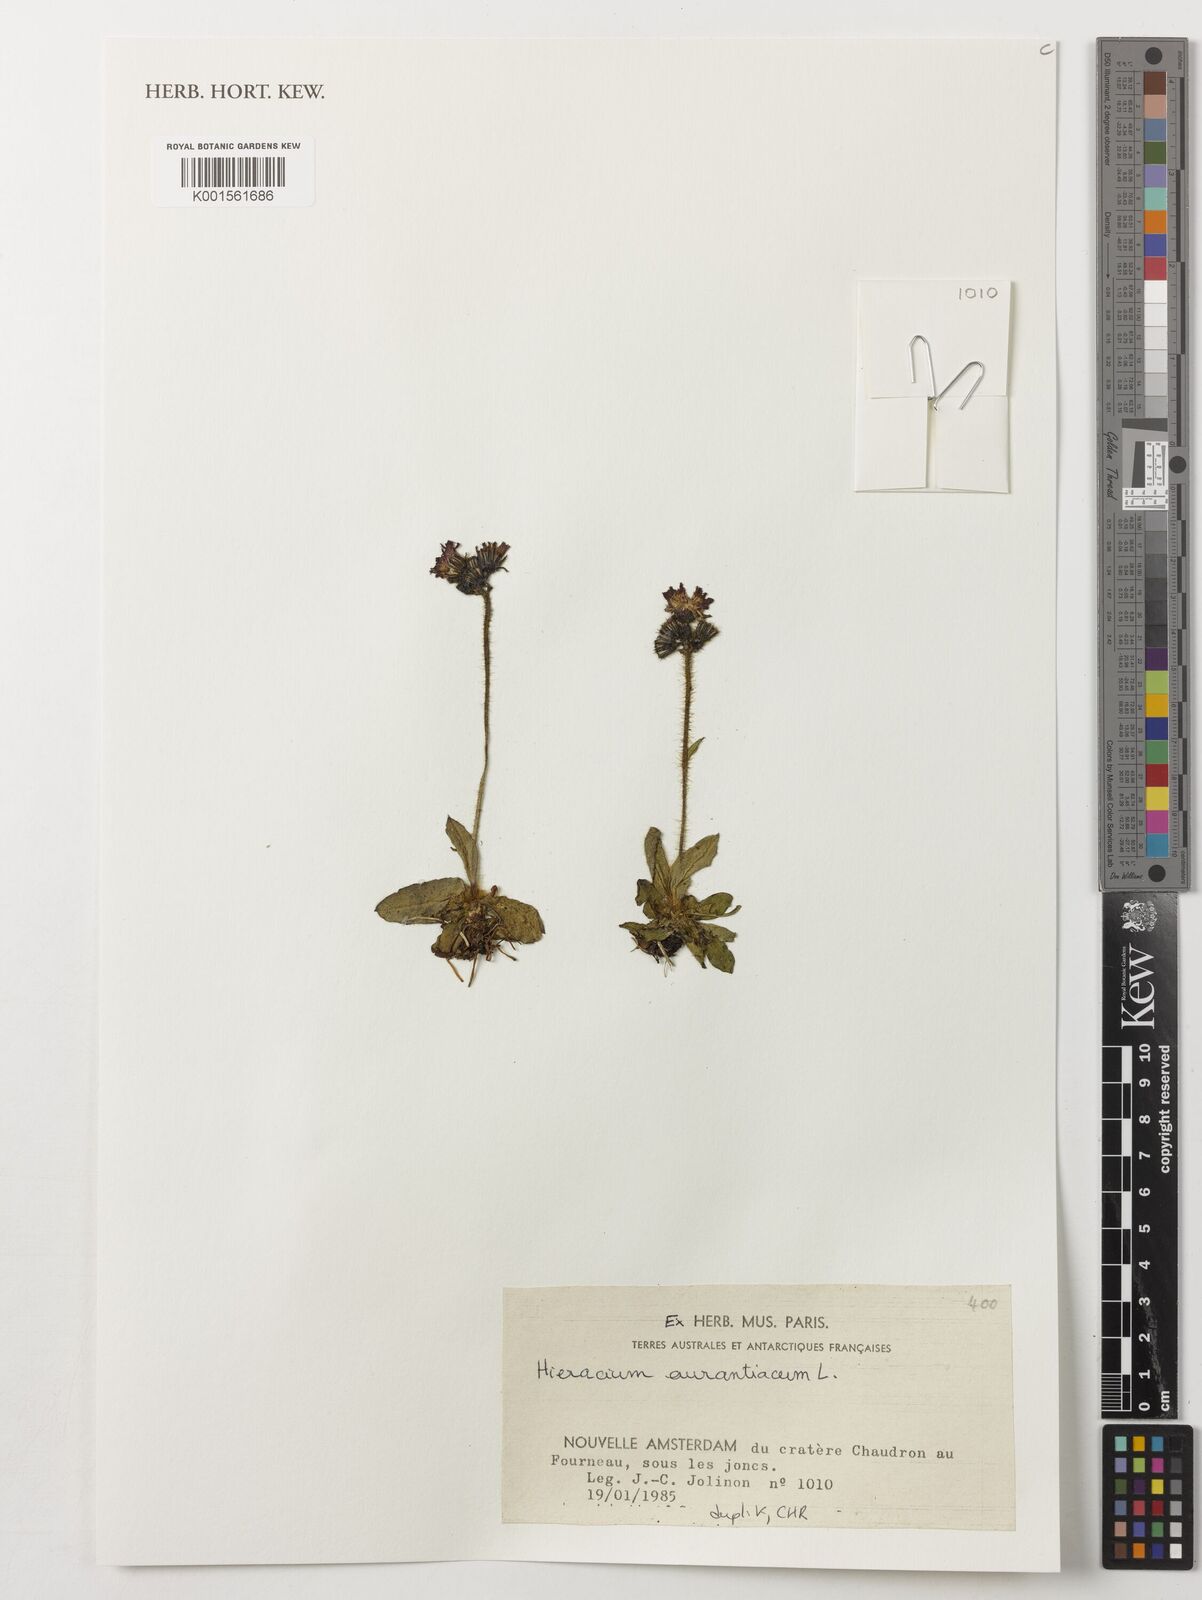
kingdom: Plantae
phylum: Tracheophyta
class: Magnoliopsida
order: Asterales
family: Asteraceae
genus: Pilosella
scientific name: Pilosella aurantiaca
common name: Fox-and-cubs
